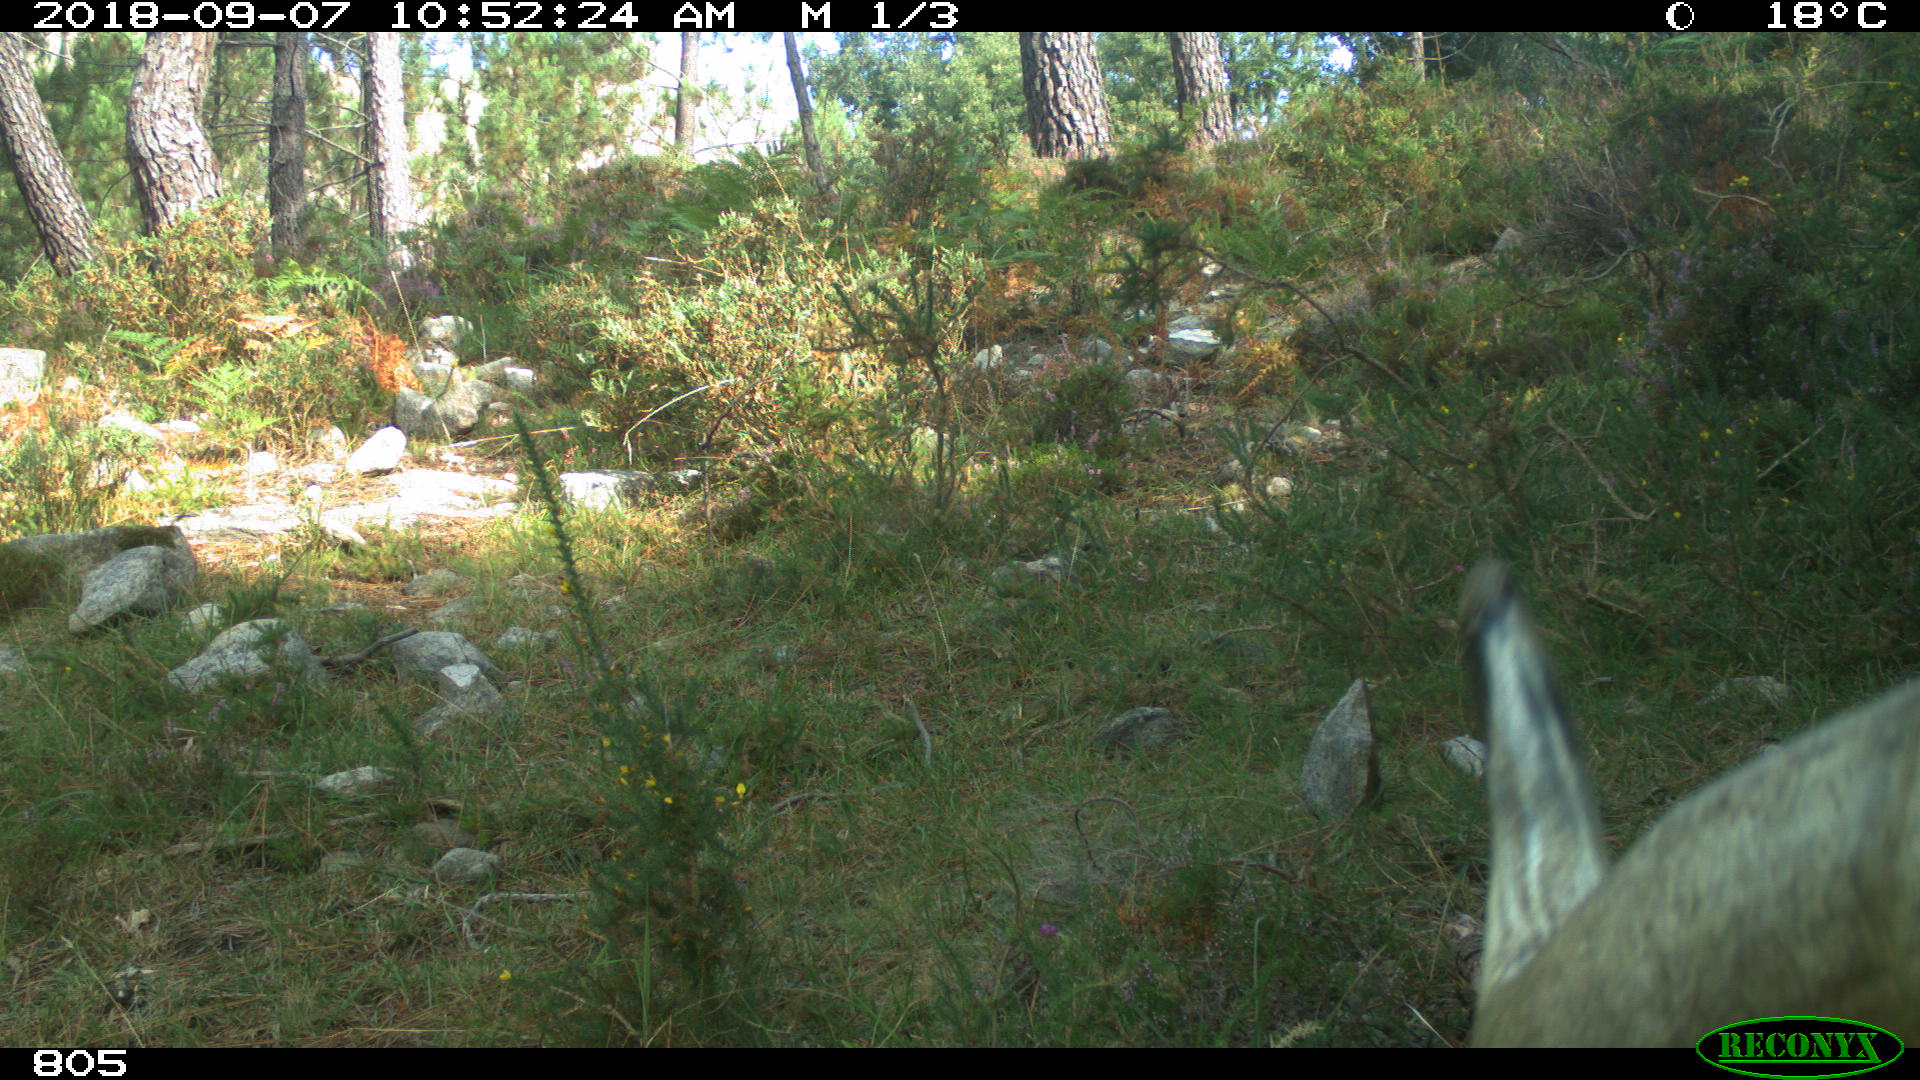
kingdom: Animalia
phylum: Chordata
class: Mammalia
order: Artiodactyla
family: Bovidae
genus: Bos
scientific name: Bos taurus
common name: Domesticated cattle
